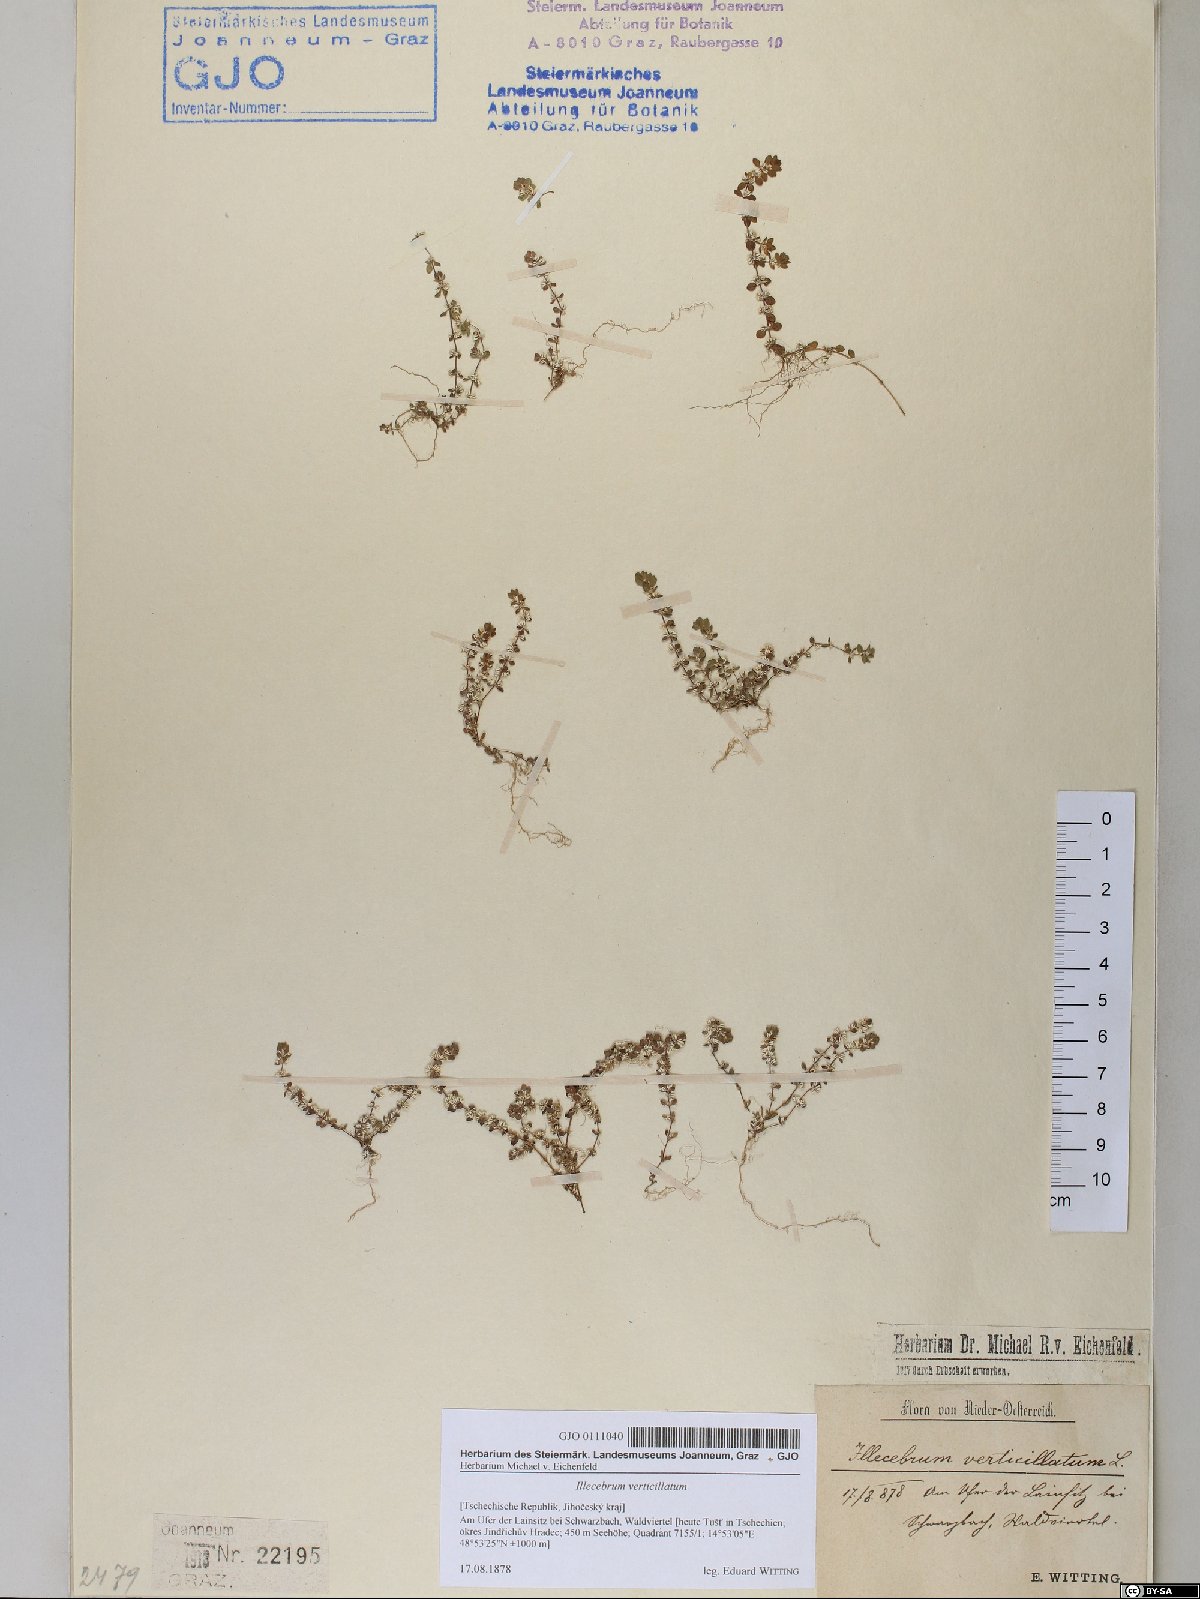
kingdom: Plantae
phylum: Tracheophyta
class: Magnoliopsida
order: Caryophyllales
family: Caryophyllaceae
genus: Illecebrum
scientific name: Illecebrum verticillatum
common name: Coral necklace
